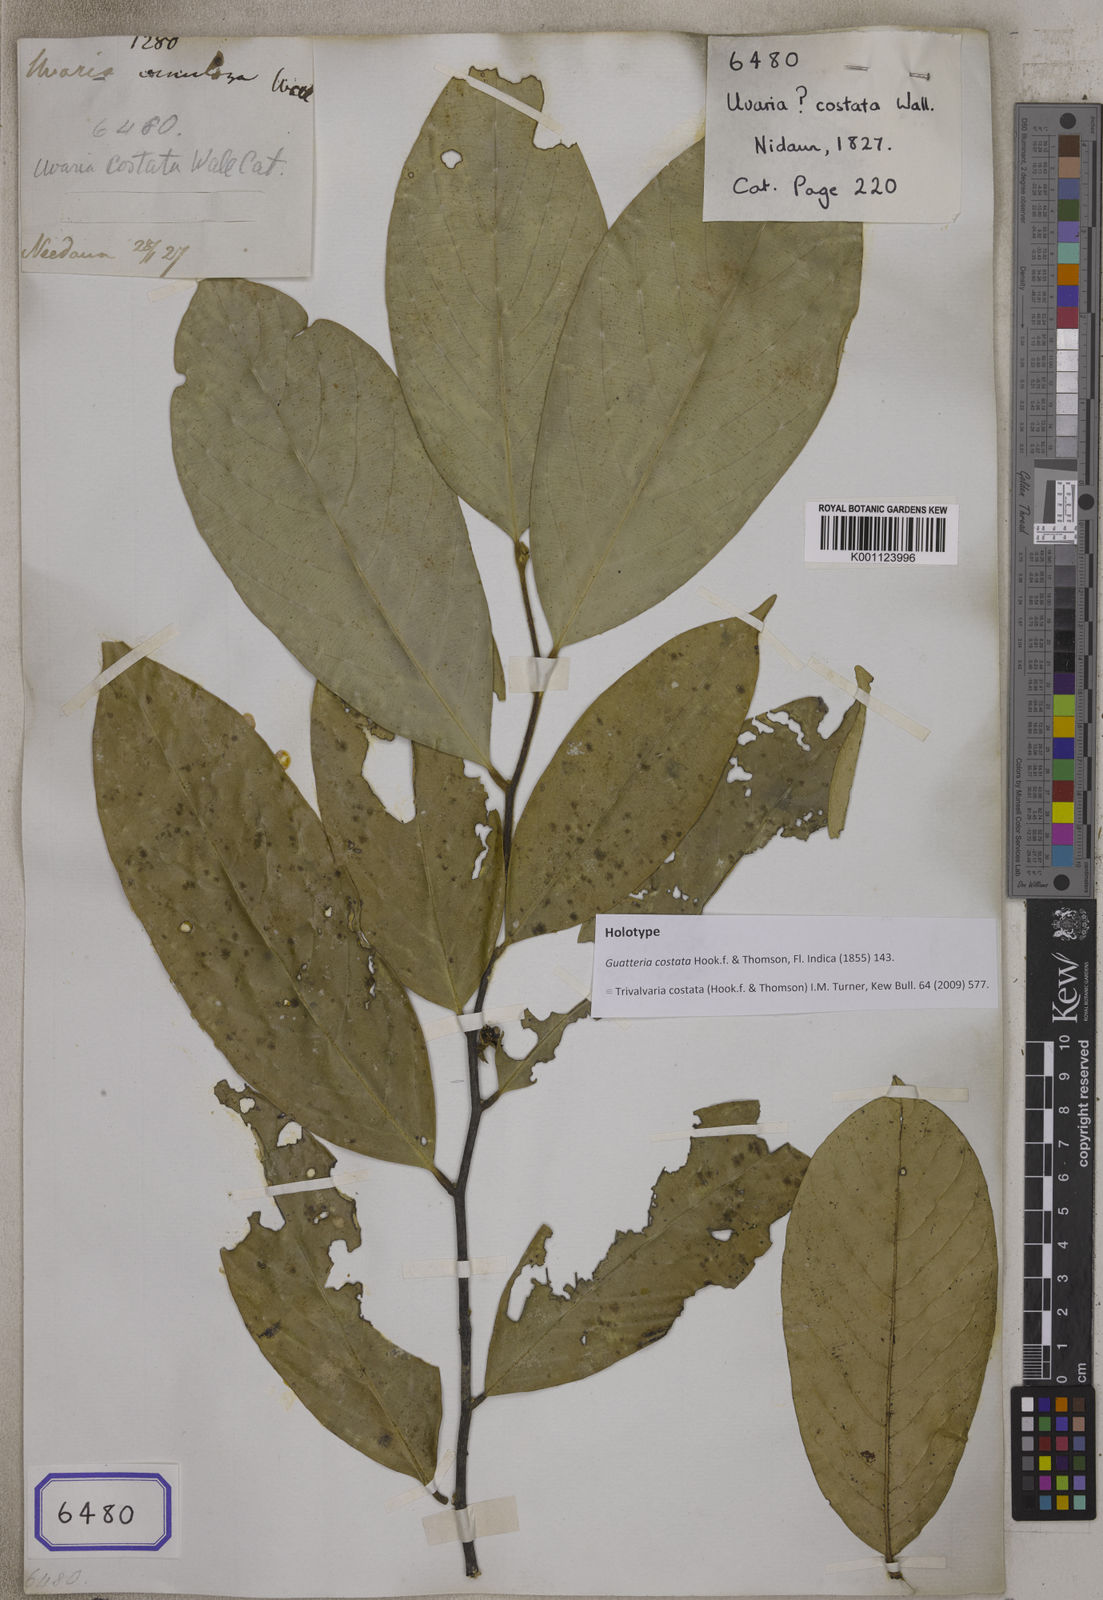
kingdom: Plantae
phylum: Tracheophyta
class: Magnoliopsida
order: Magnoliales
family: Annonaceae
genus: Trivalvaria
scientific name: Trivalvaria costata
